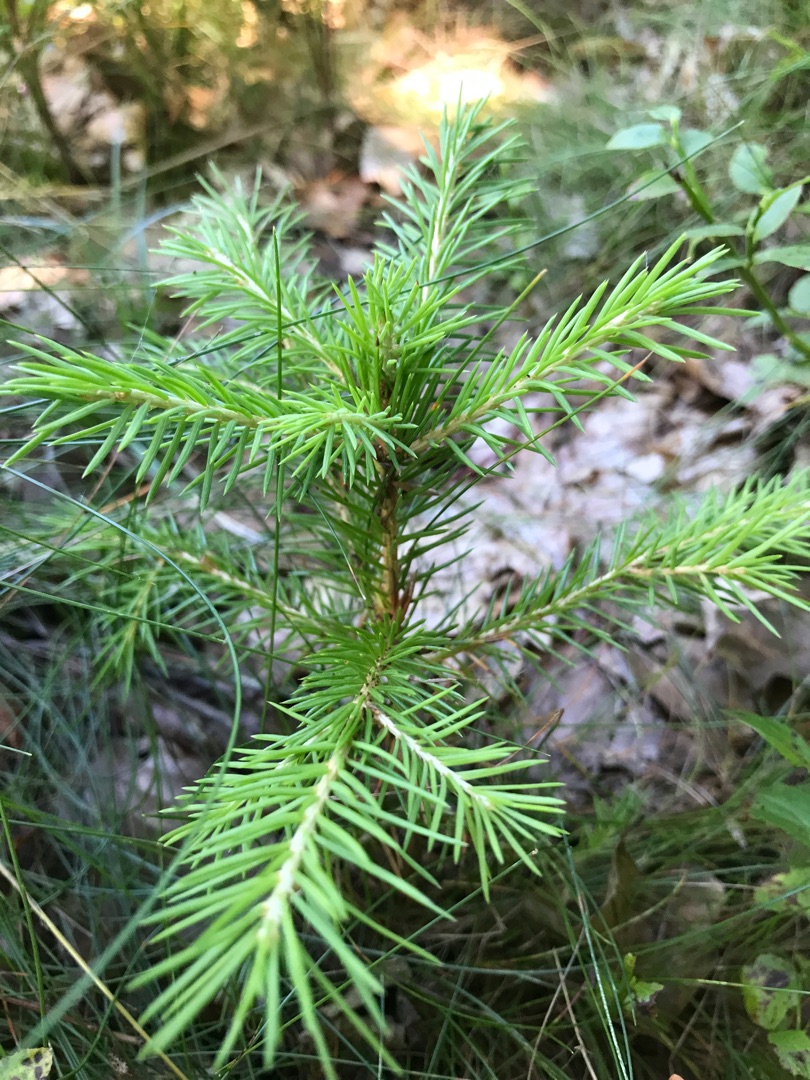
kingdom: Plantae
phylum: Tracheophyta
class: Pinopsida
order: Pinales
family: Pinaceae
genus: Picea
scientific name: Picea abies
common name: Rød-gran
